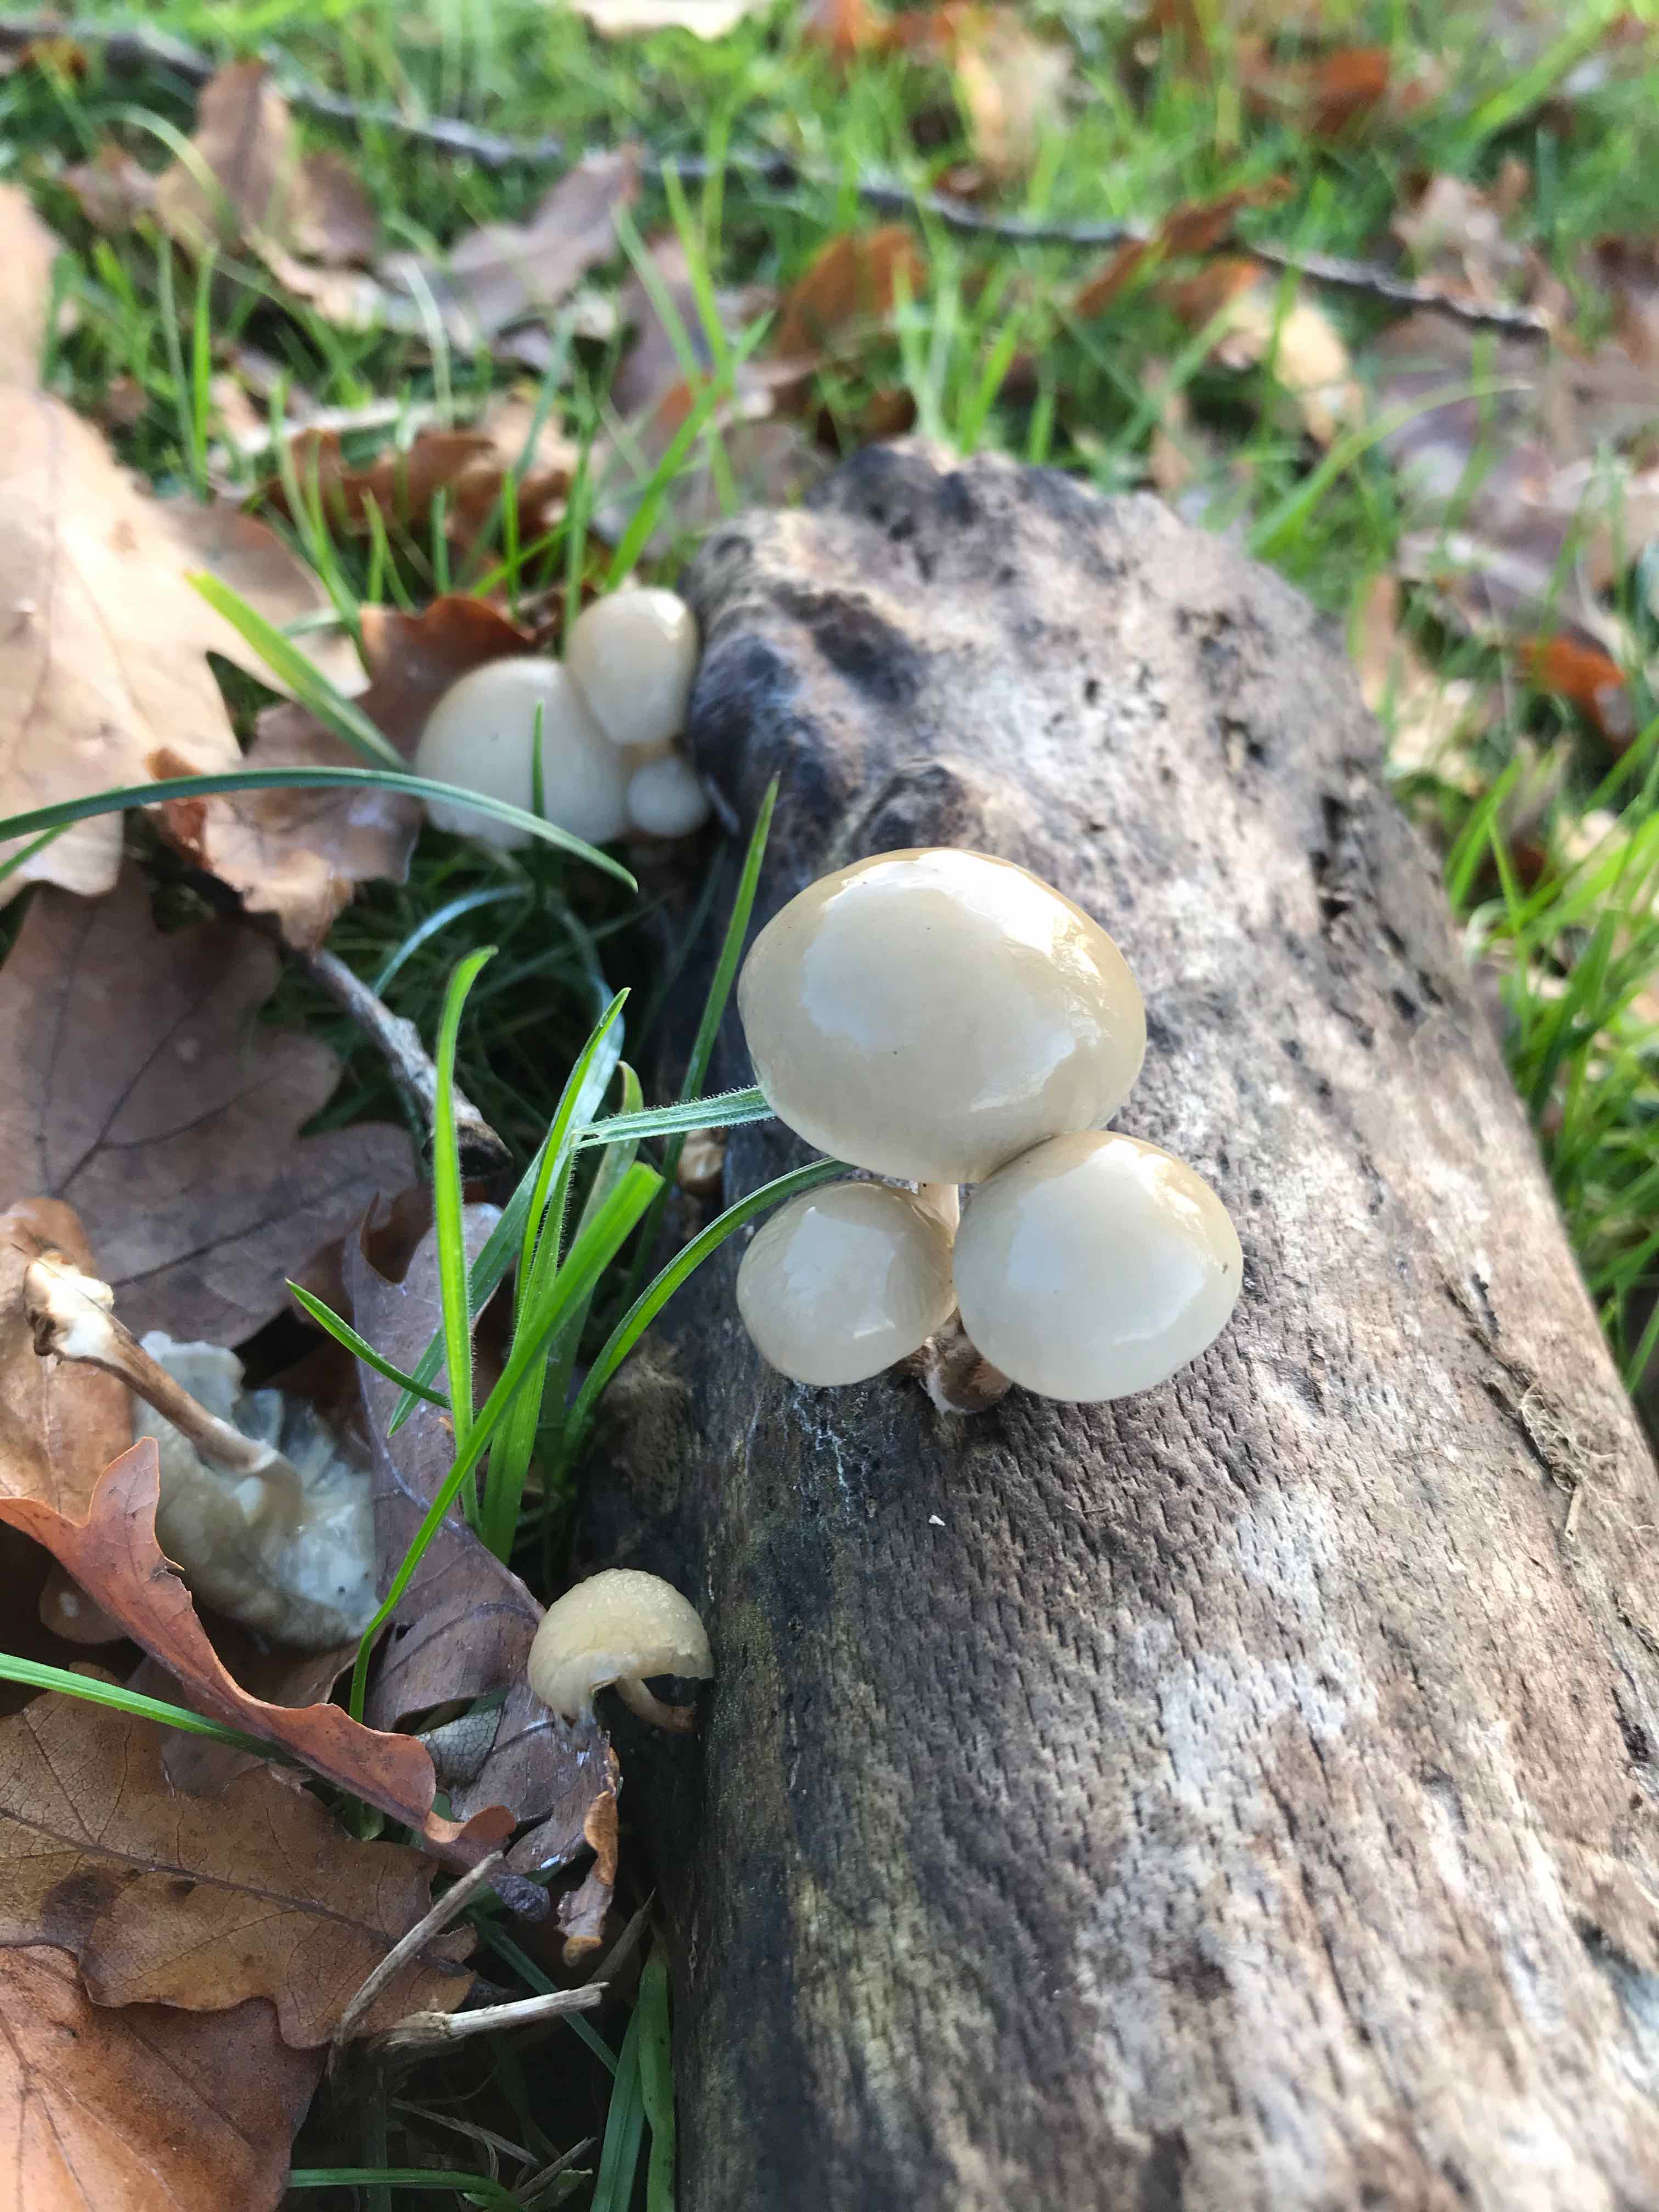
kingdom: Fungi
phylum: Basidiomycota
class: Agaricomycetes
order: Agaricales
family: Physalacriaceae
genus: Mucidula
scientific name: Mucidula mucida
